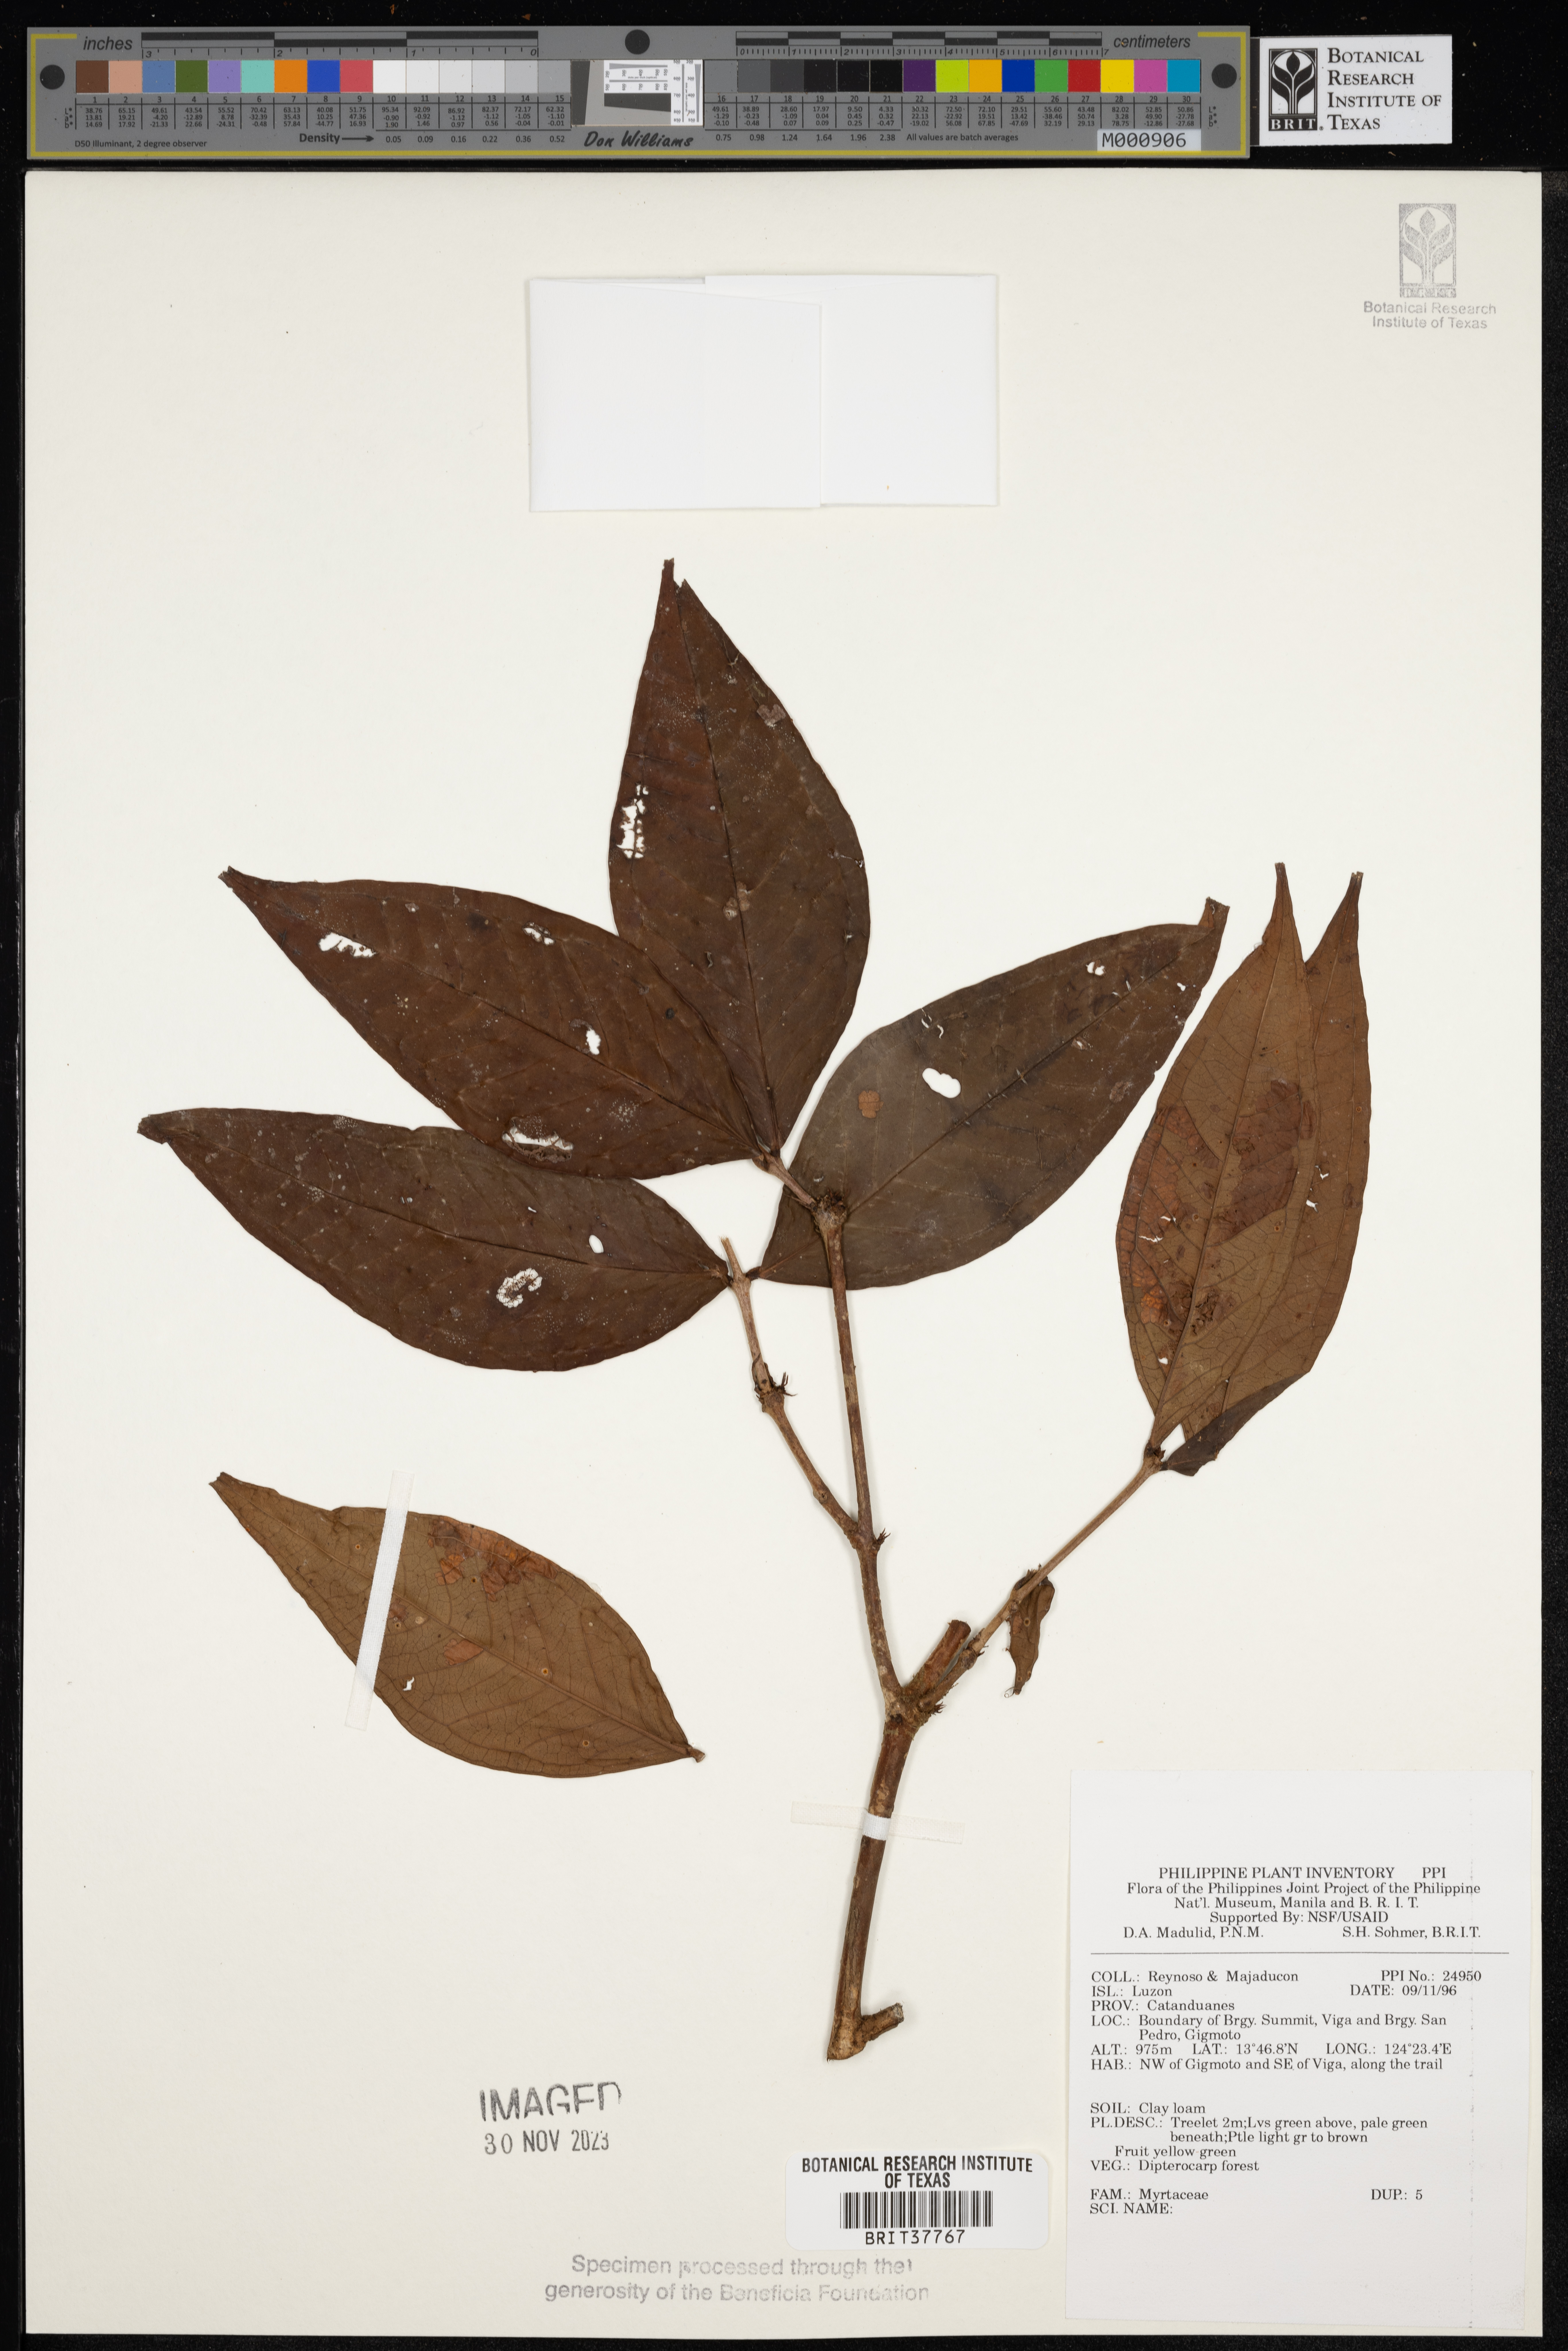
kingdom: Plantae
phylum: Tracheophyta
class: Magnoliopsida
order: Myrtales
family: Myrtaceae
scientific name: Myrtaceae
